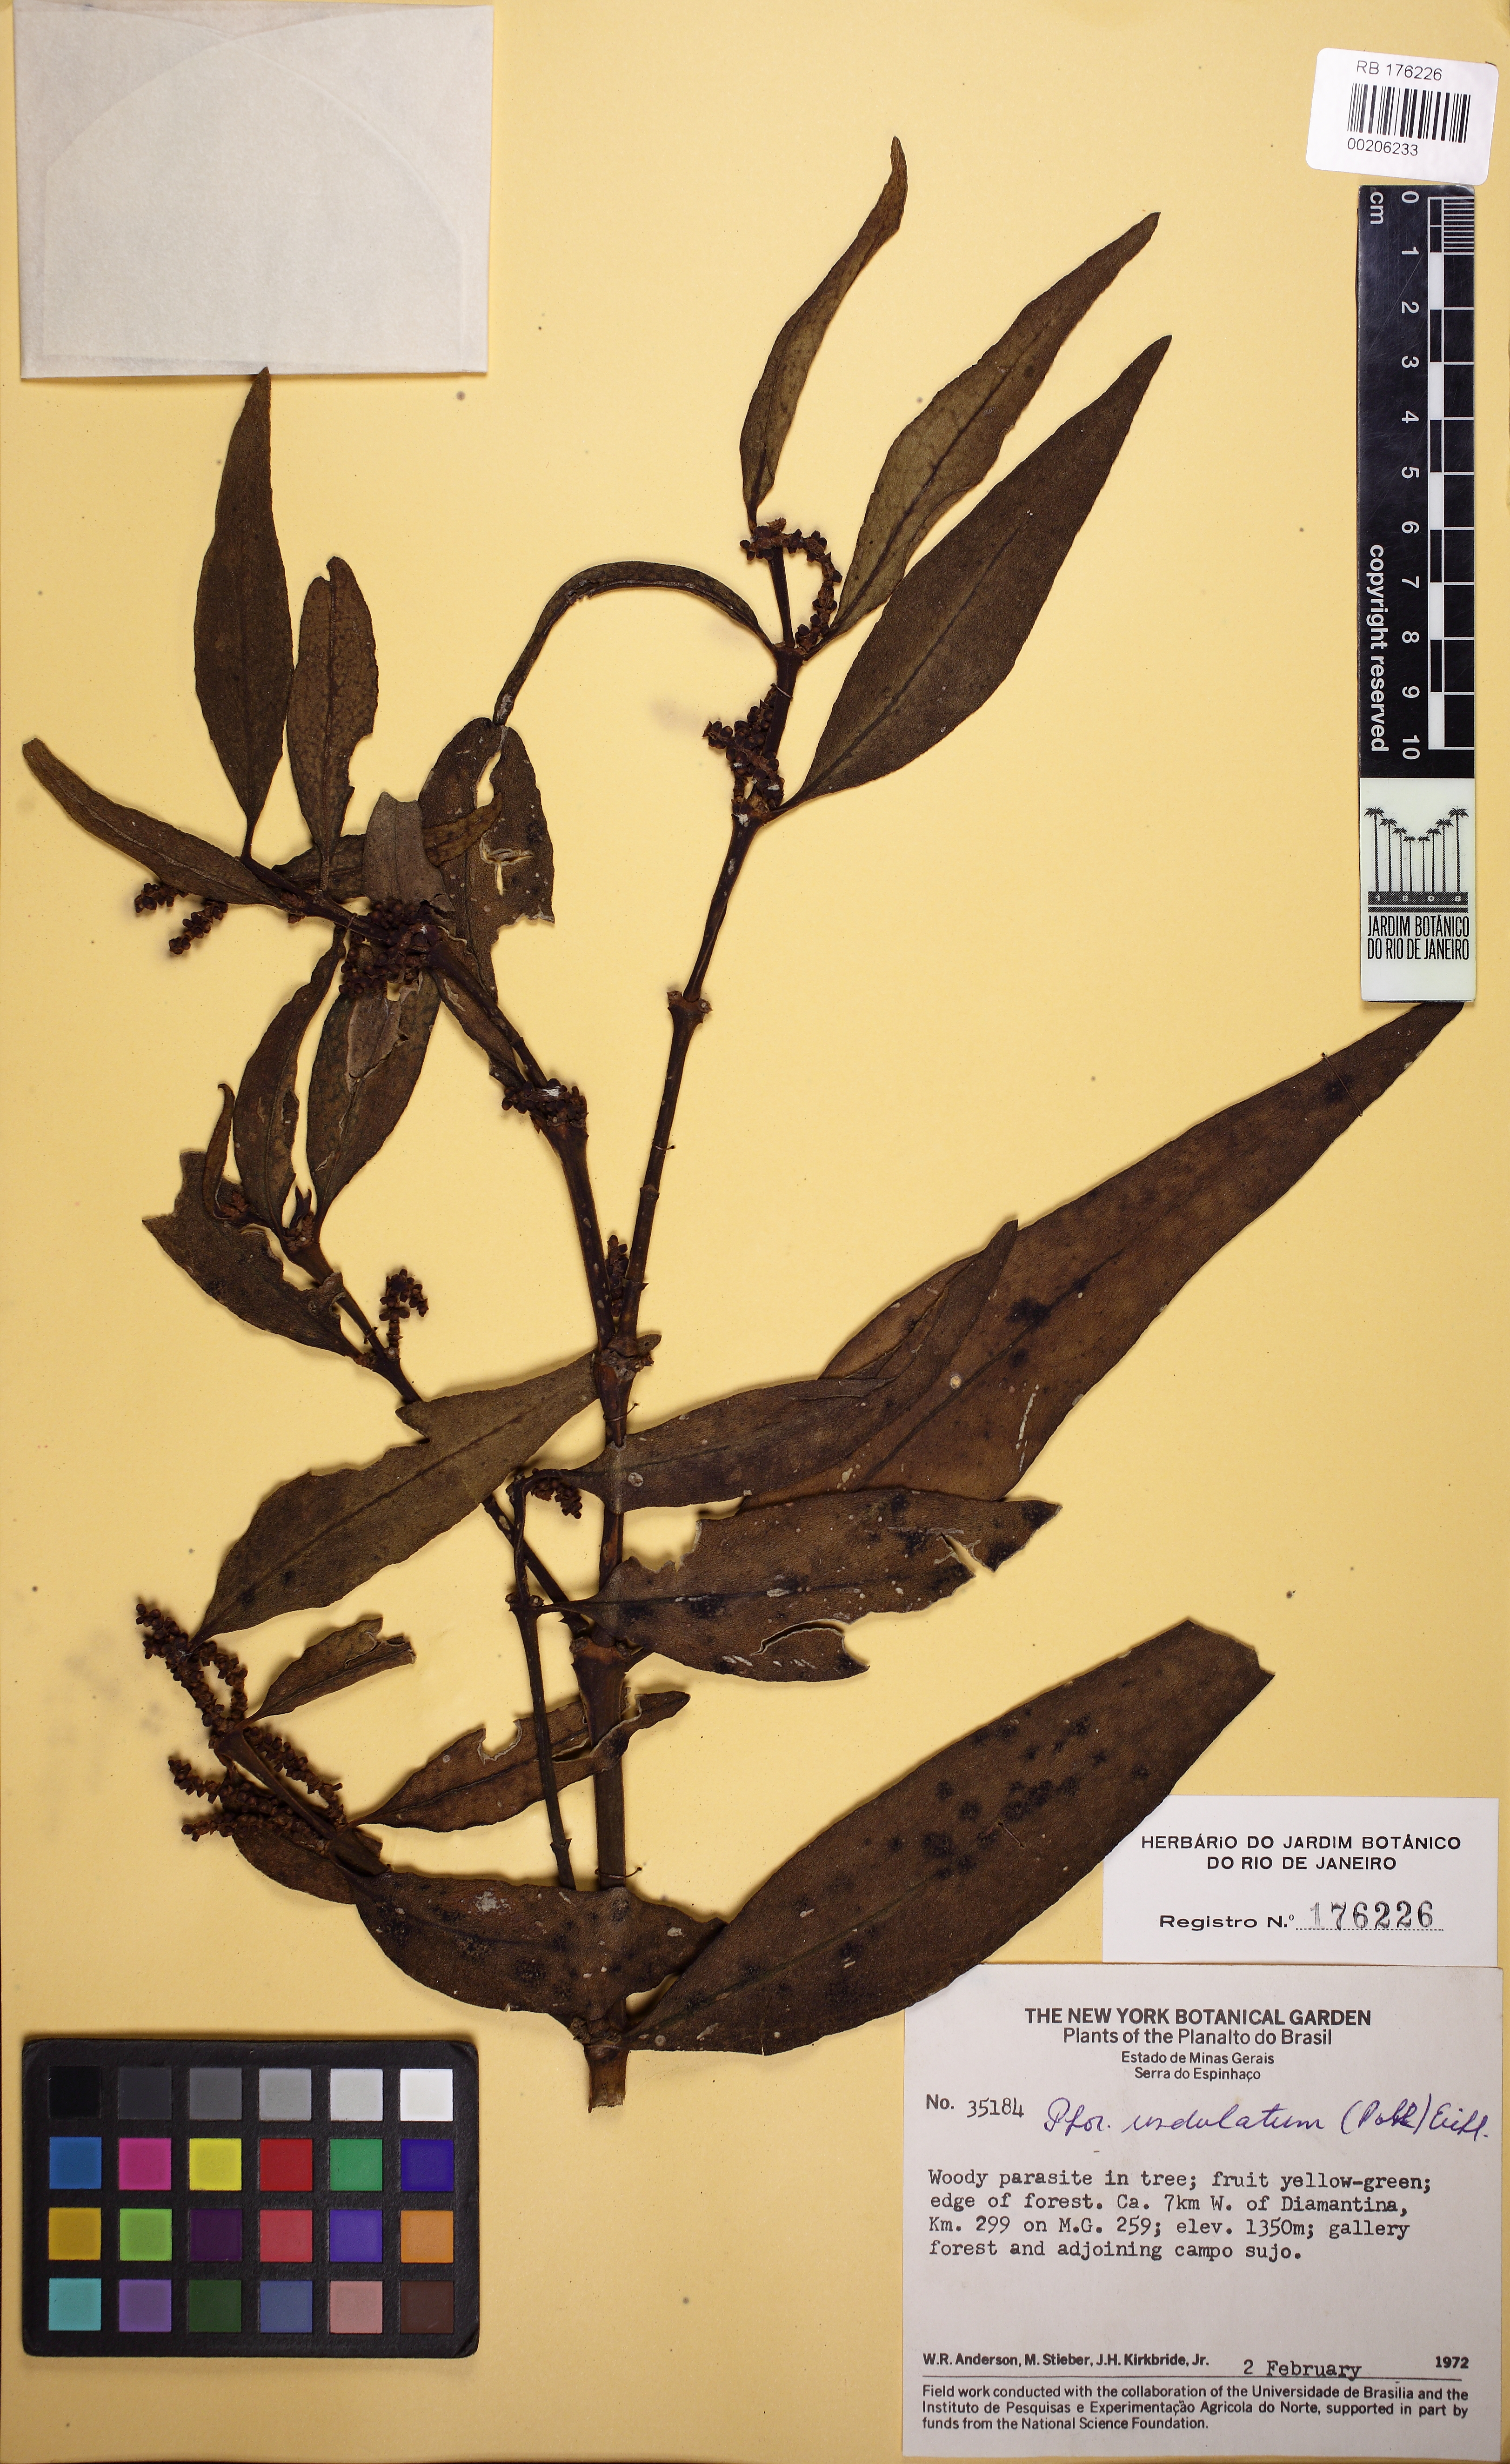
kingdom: Plantae
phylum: Tracheophyta
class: Magnoliopsida
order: Santalales
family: Viscaceae
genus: Phoradendron
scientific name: Phoradendron undulatum
